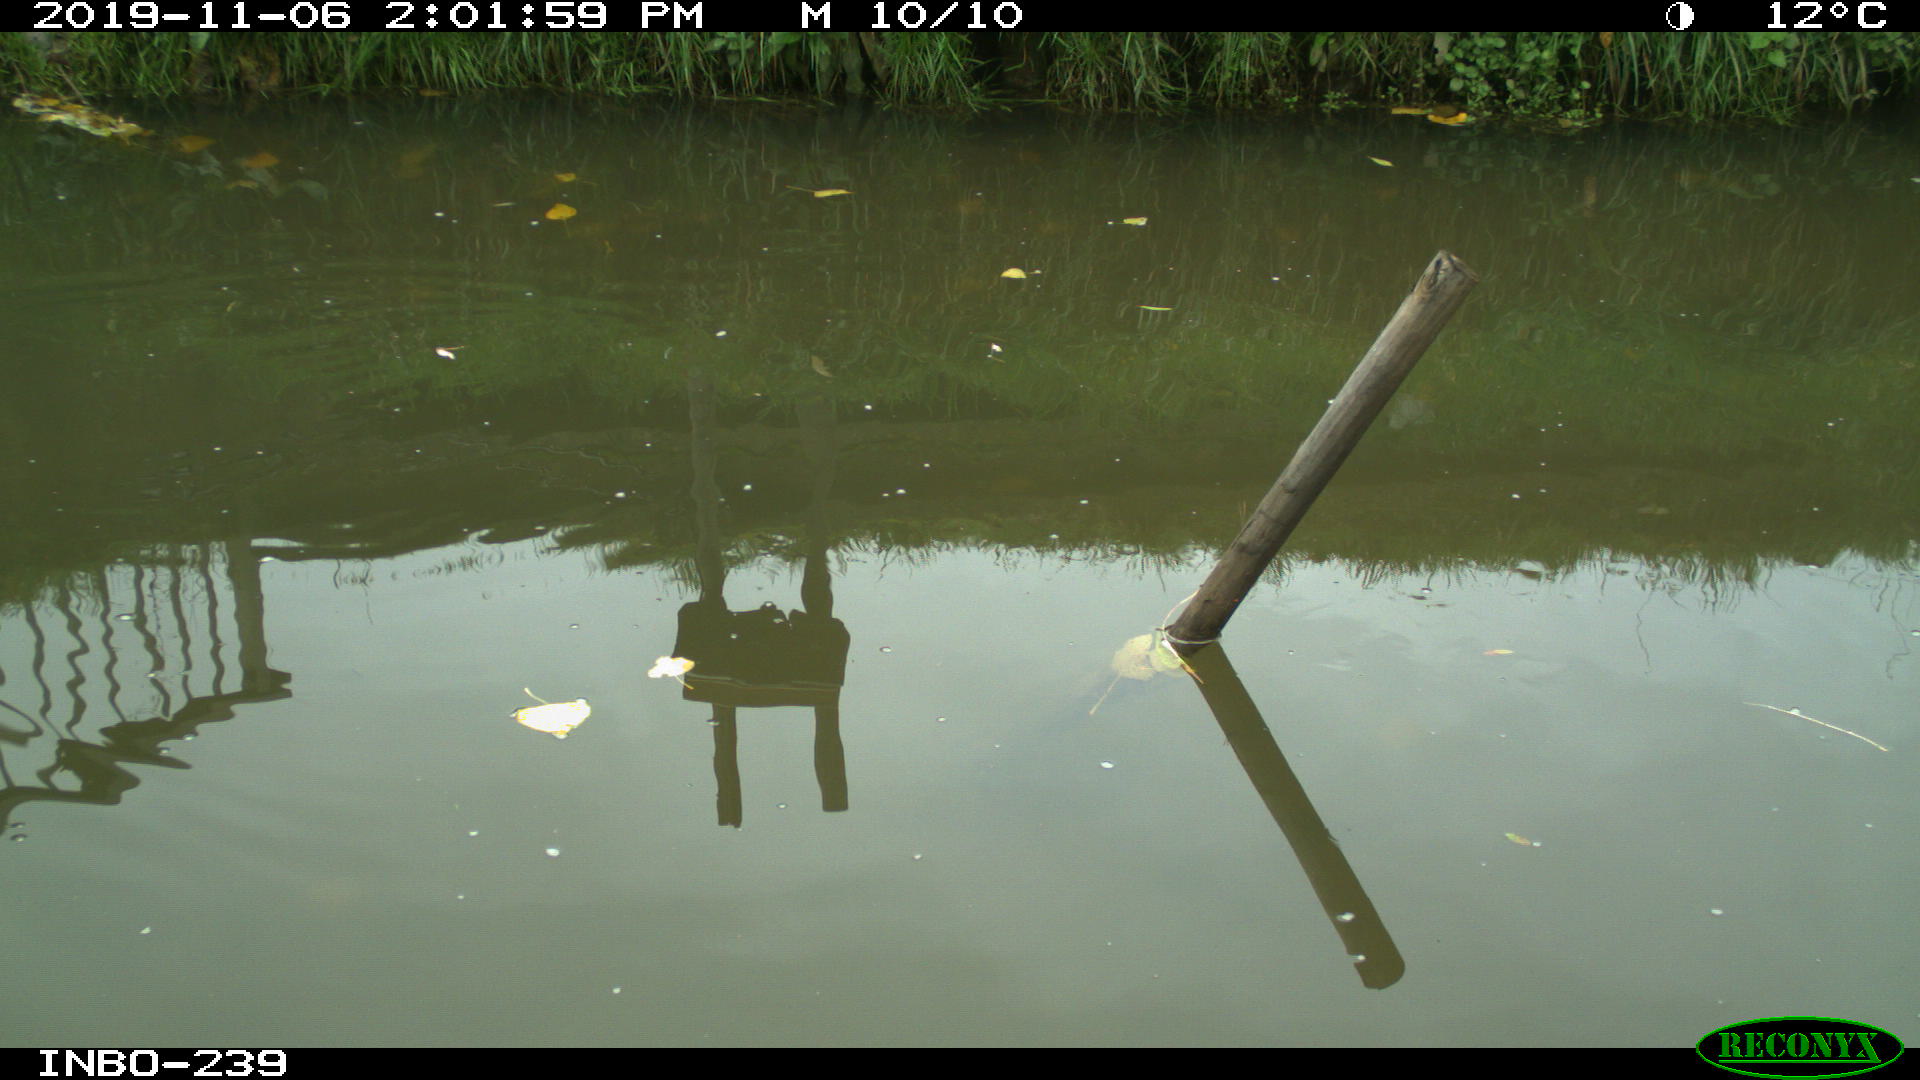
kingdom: Animalia
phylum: Chordata
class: Aves
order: Gruiformes
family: Rallidae
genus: Gallinula
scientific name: Gallinula chloropus
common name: Common moorhen
